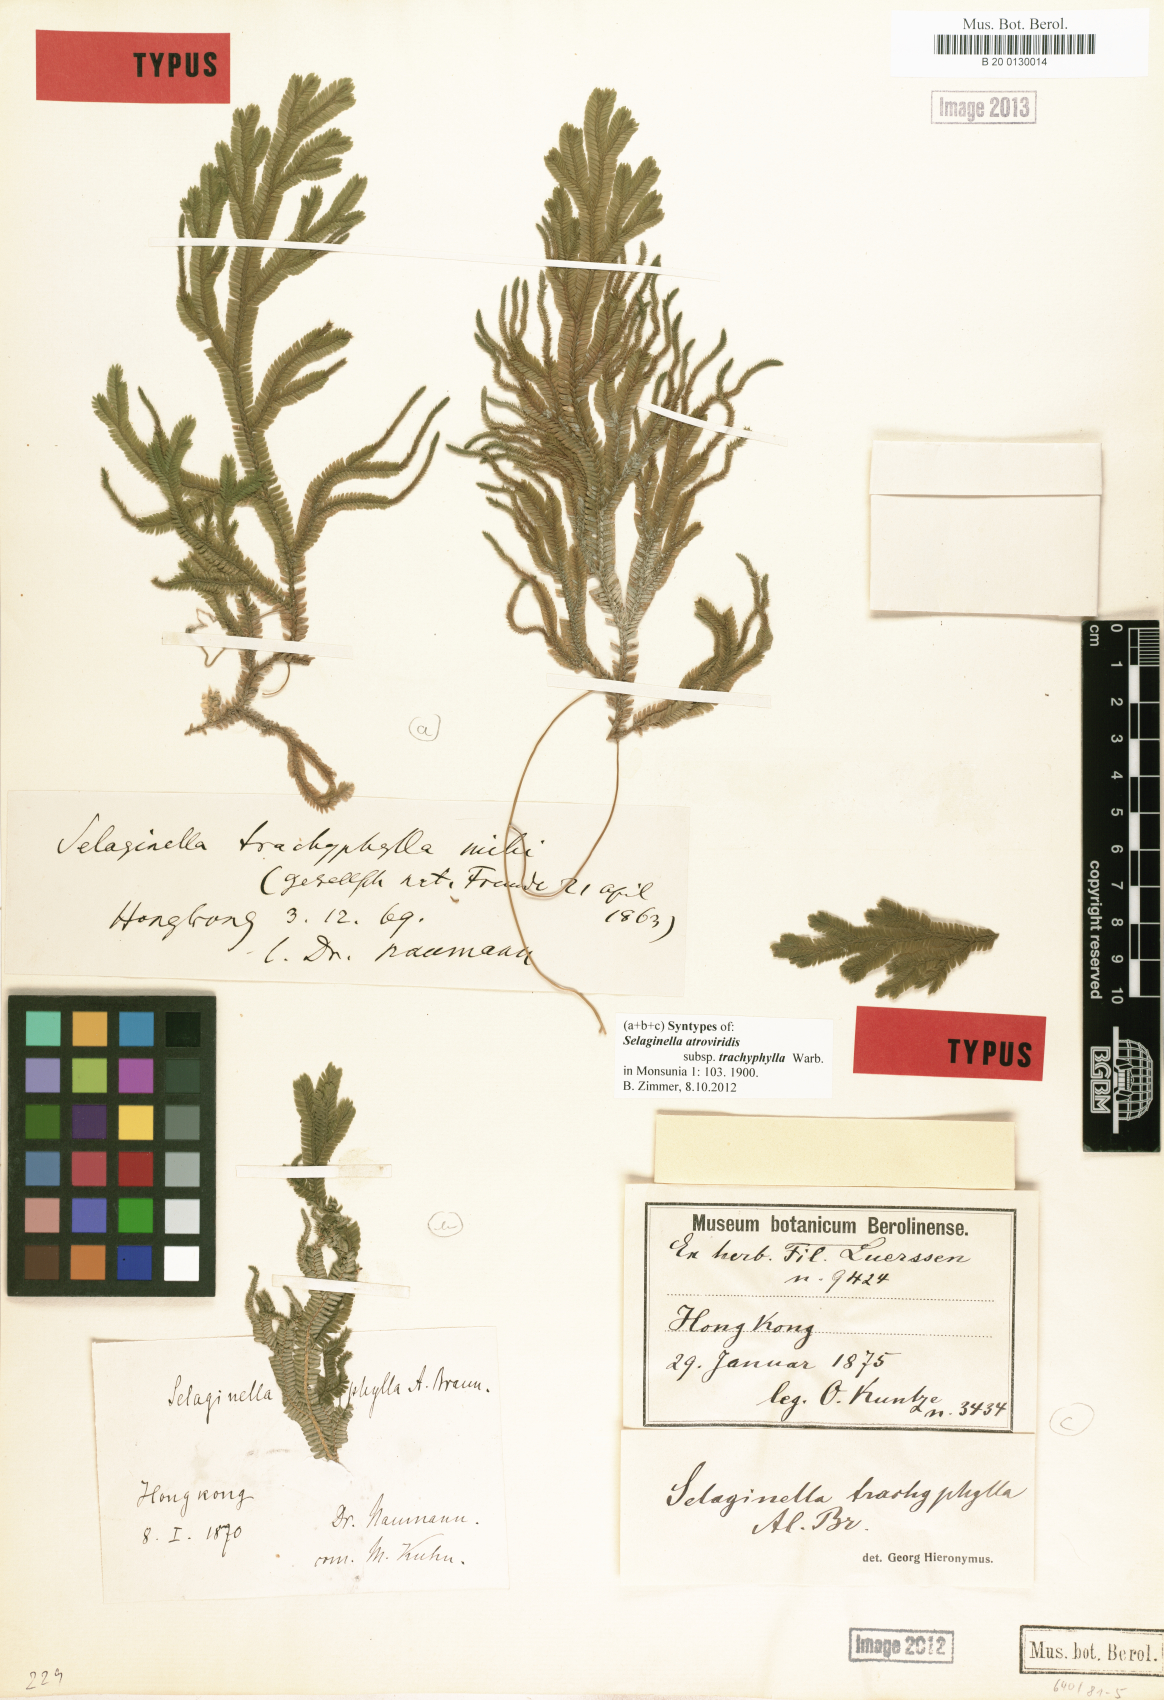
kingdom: Plantae
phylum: Tracheophyta
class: Lycopodiopsida
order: Selaginellales
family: Selaginellaceae
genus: Selaginella
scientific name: Selaginella trachyphylla
